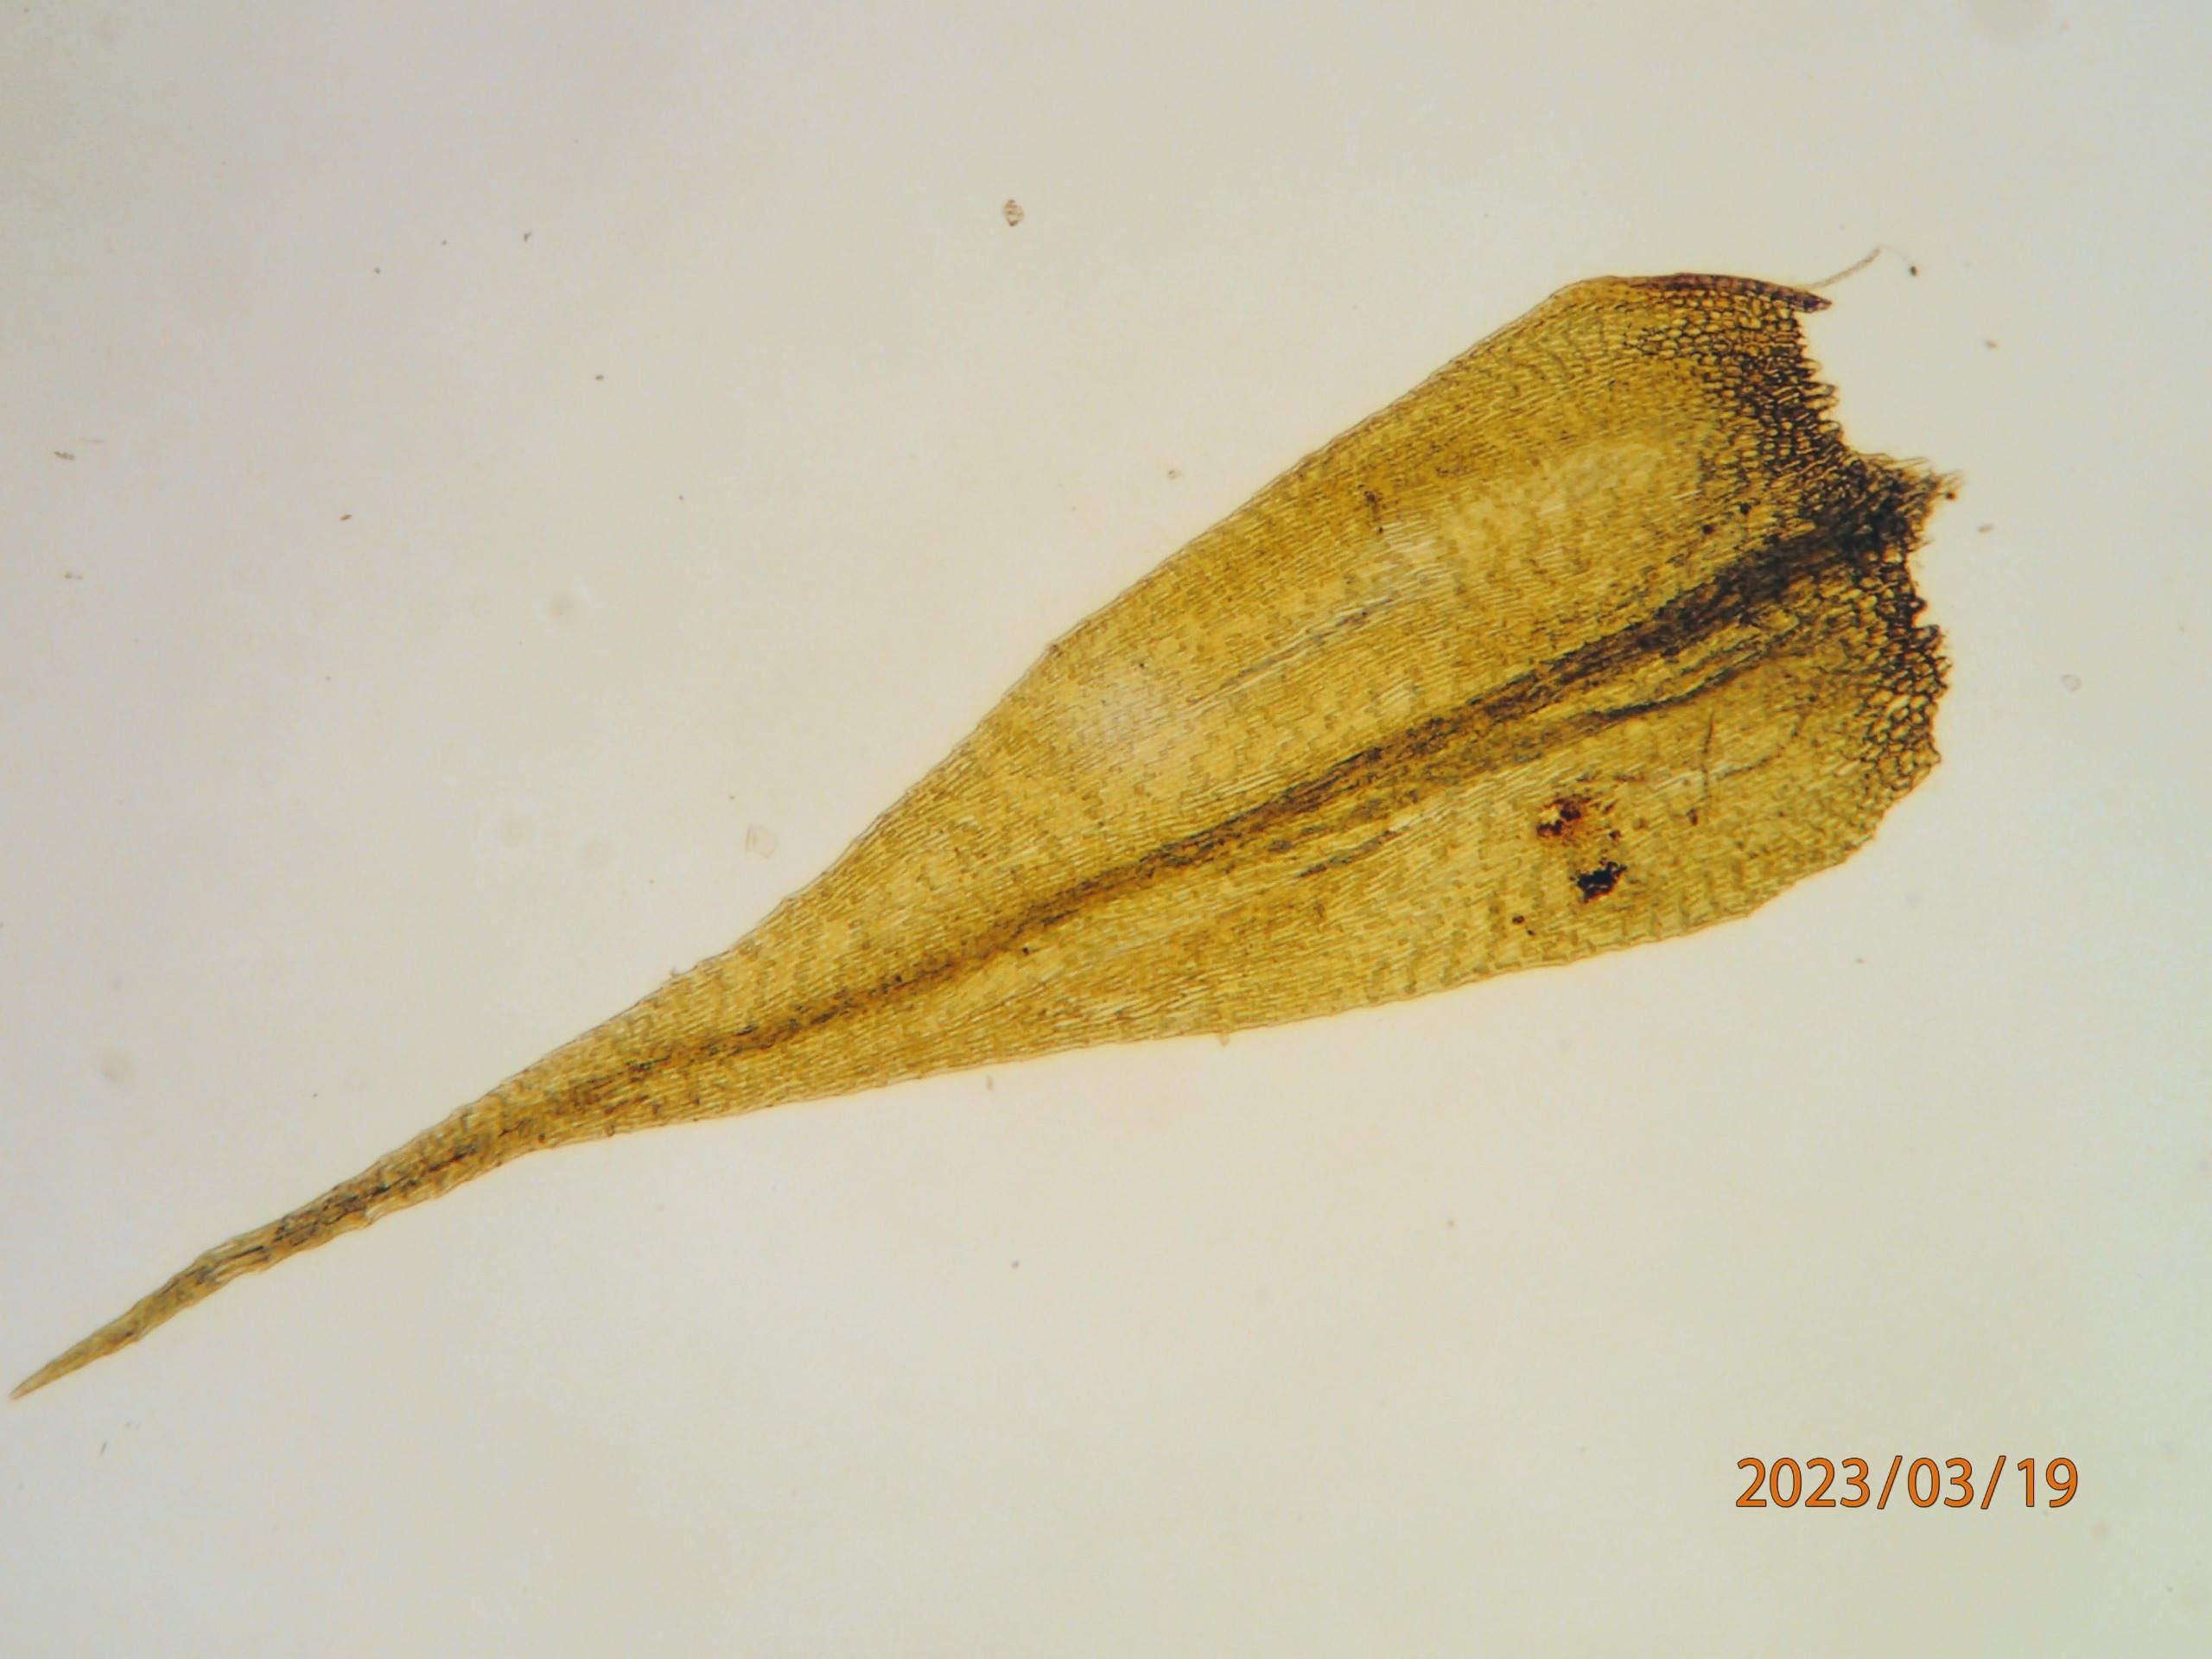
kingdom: Plantae
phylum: Bryophyta
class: Bryopsida
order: Hypnales
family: Brachytheciaceae
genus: Sciuro-hypnum
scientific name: Sciuro-hypnum populeum
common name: Park-kortkapsel
